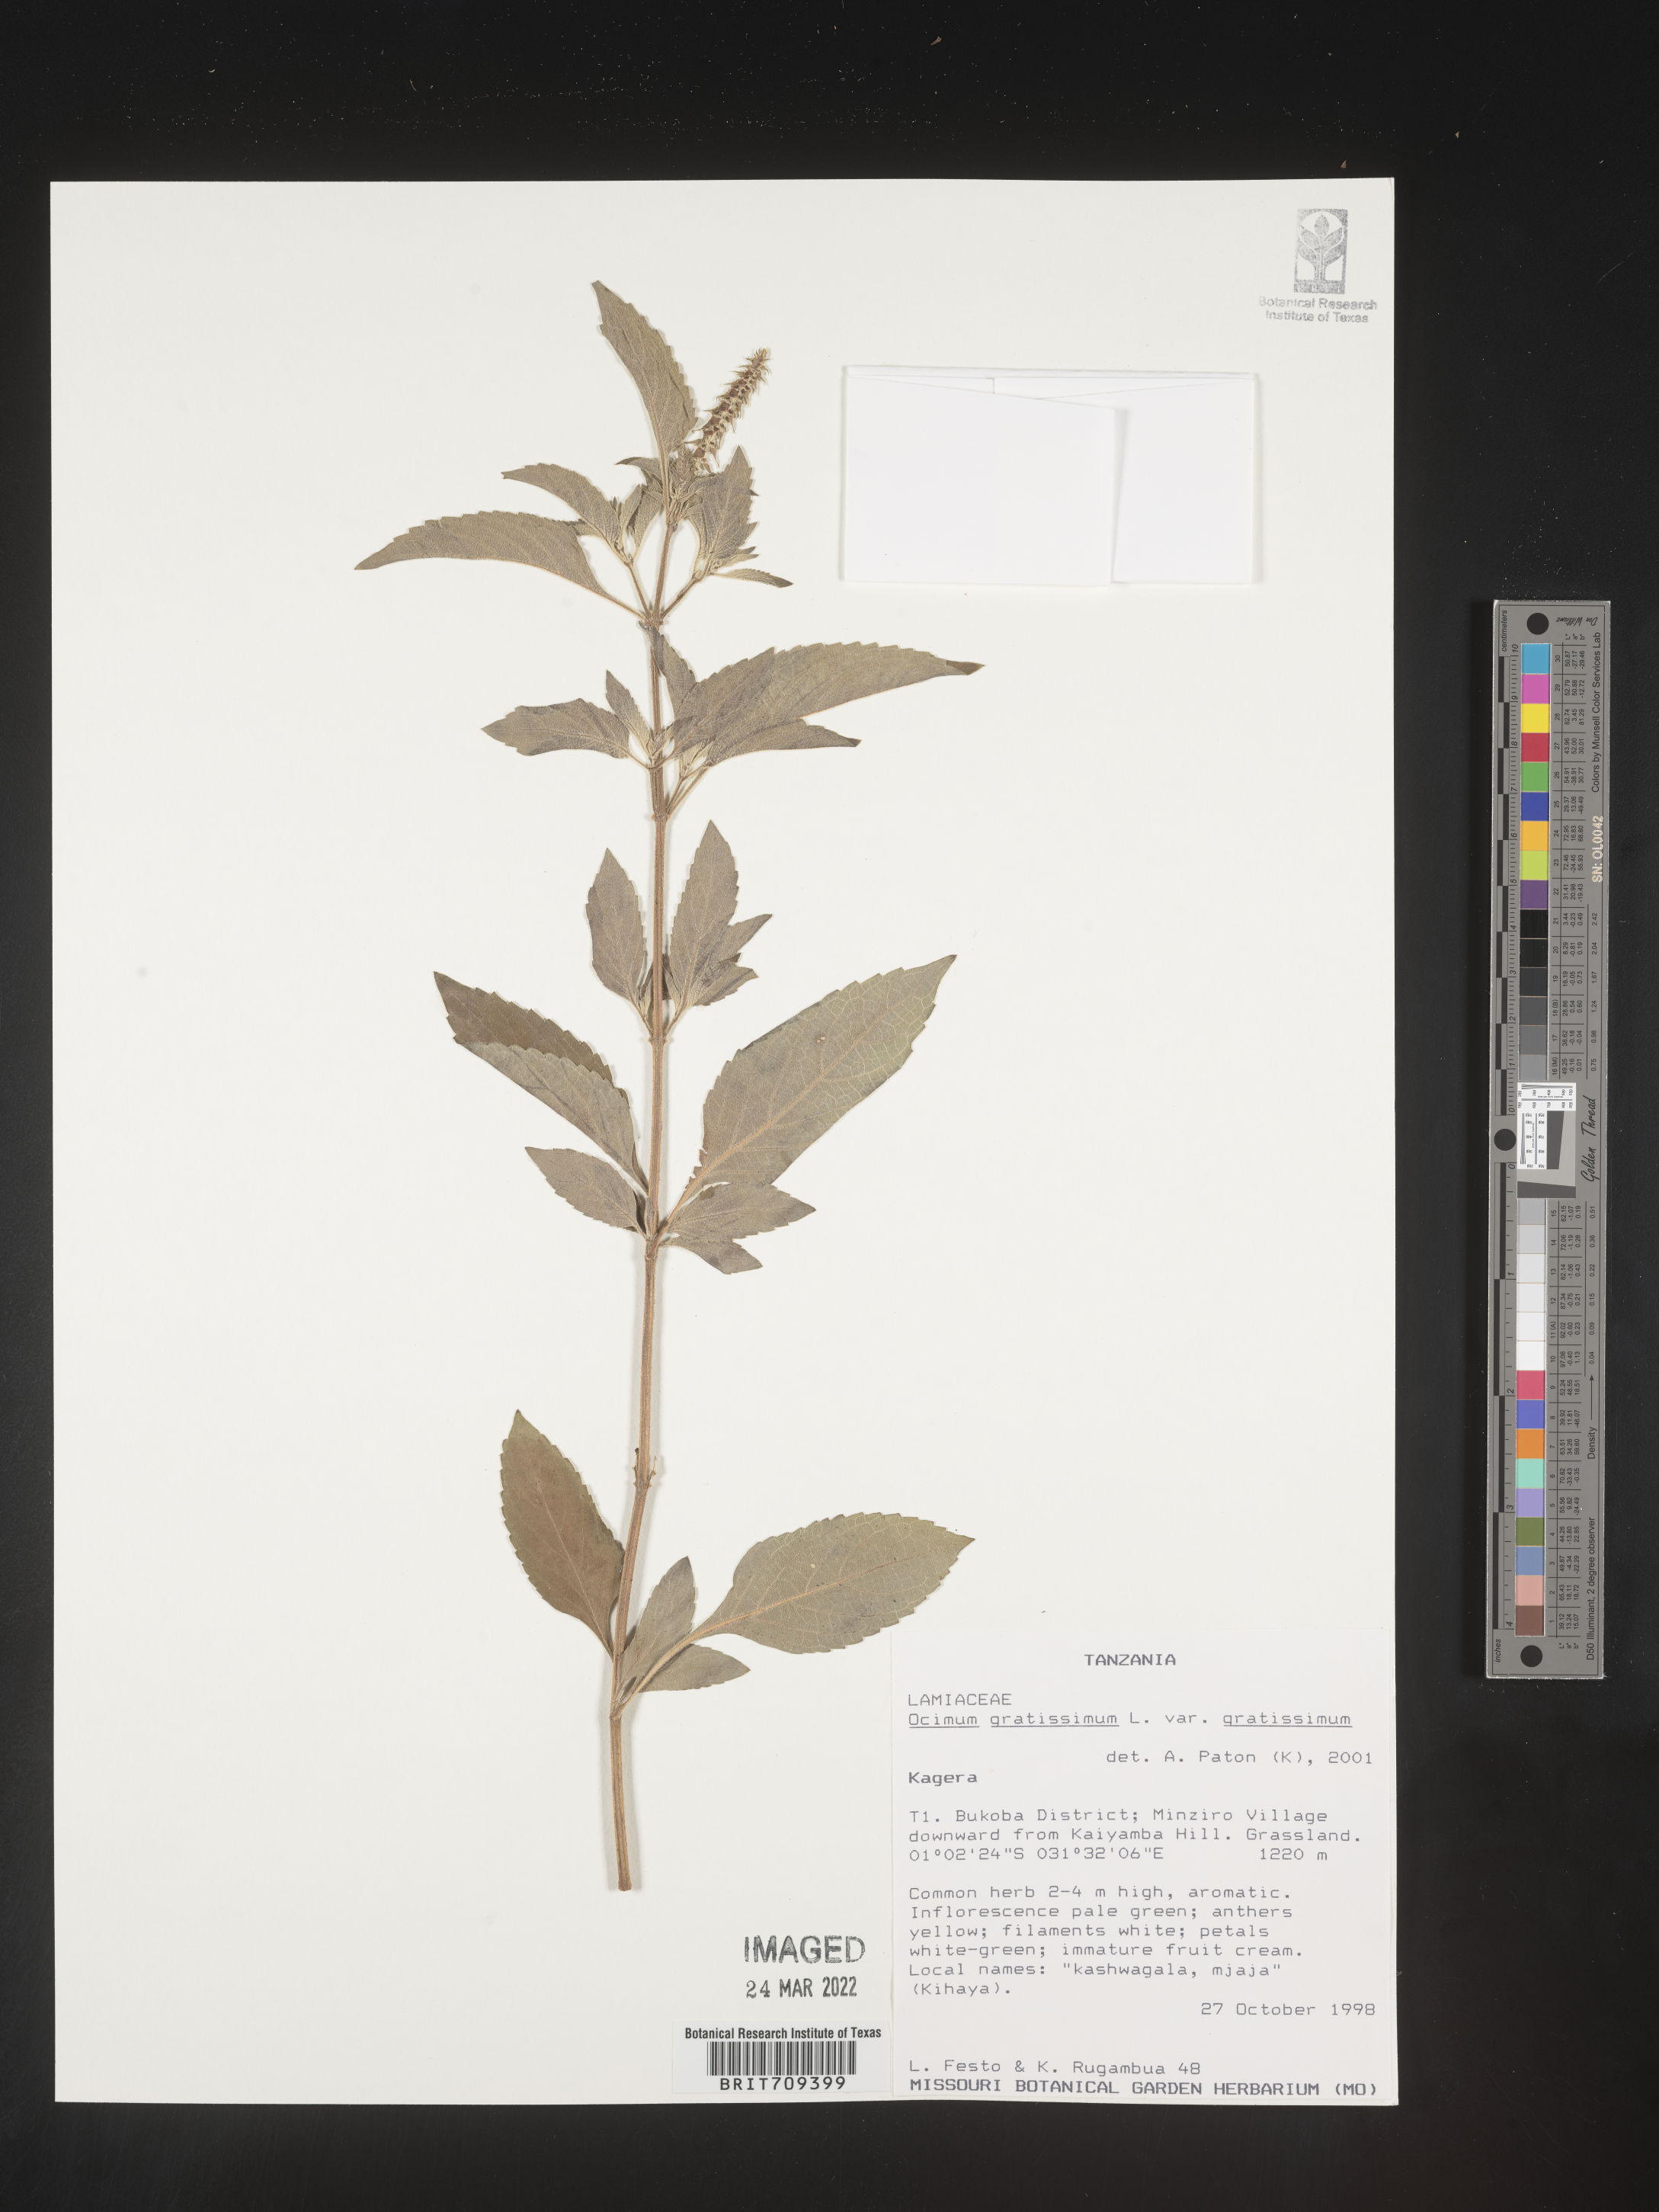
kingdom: Plantae
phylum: Tracheophyta
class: Magnoliopsida
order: Lamiales
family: Lamiaceae
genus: Ocimum
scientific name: Ocimum
